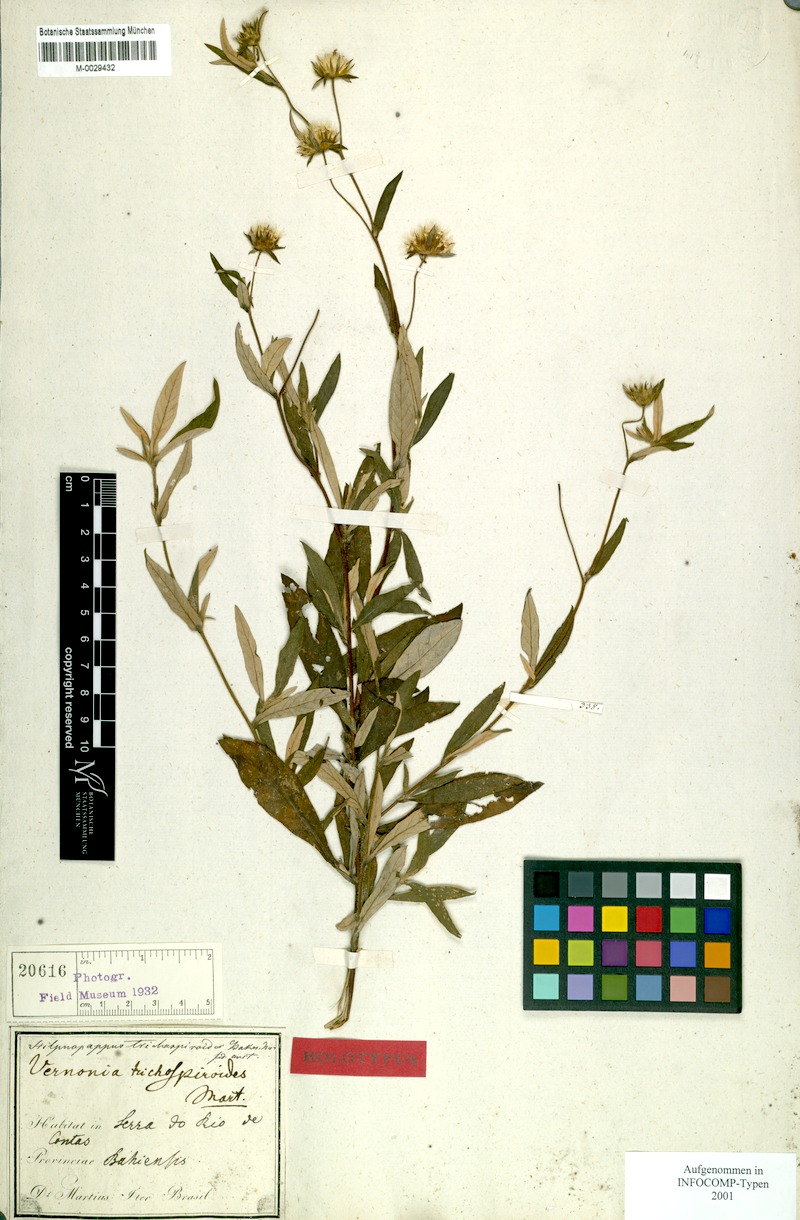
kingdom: Plantae
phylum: Tracheophyta
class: Magnoliopsida
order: Asterales
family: Asteraceae
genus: Stilpnopappus
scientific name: Stilpnopappus trichospiroides
